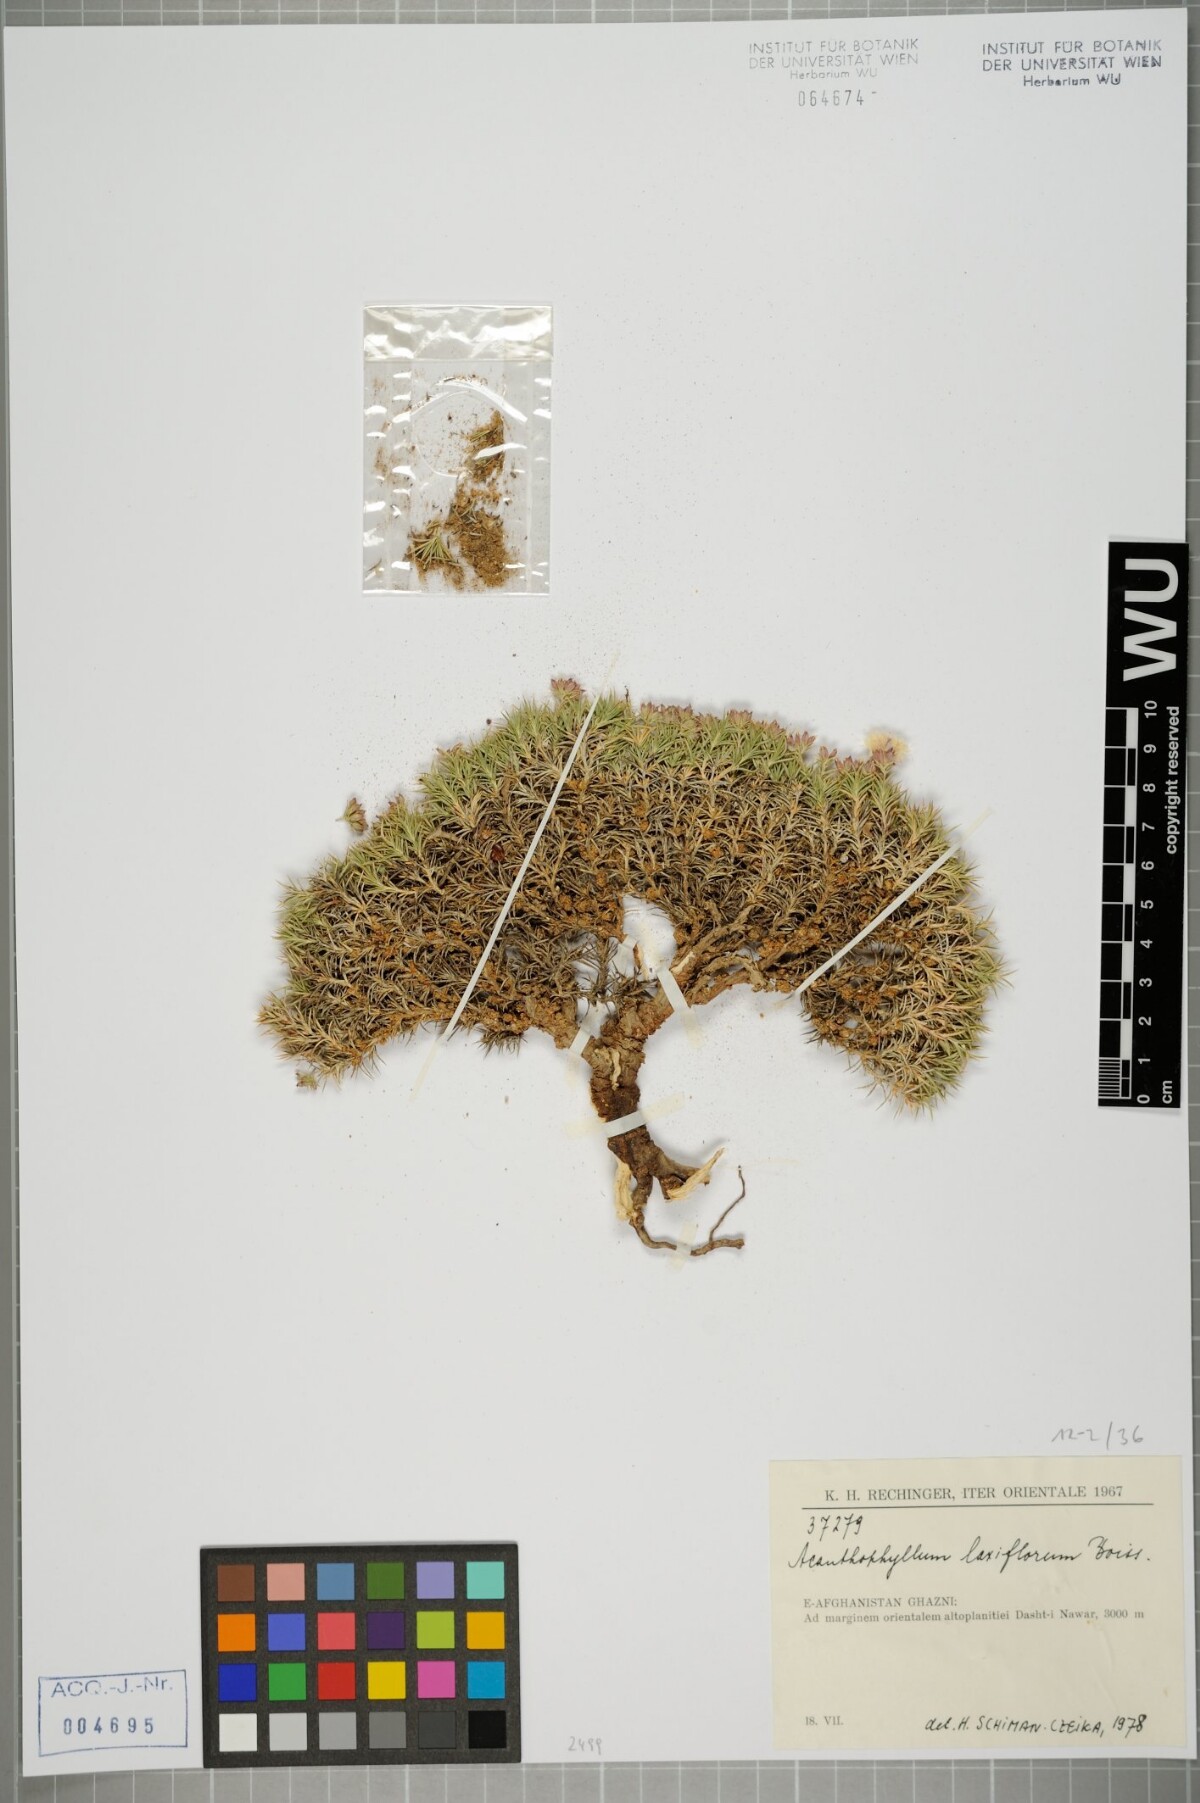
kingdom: Plantae
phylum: Tracheophyta
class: Magnoliopsida
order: Caryophyllales
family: Caryophyllaceae
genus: Acanthophyllum
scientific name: Acanthophyllum laxiflorum
